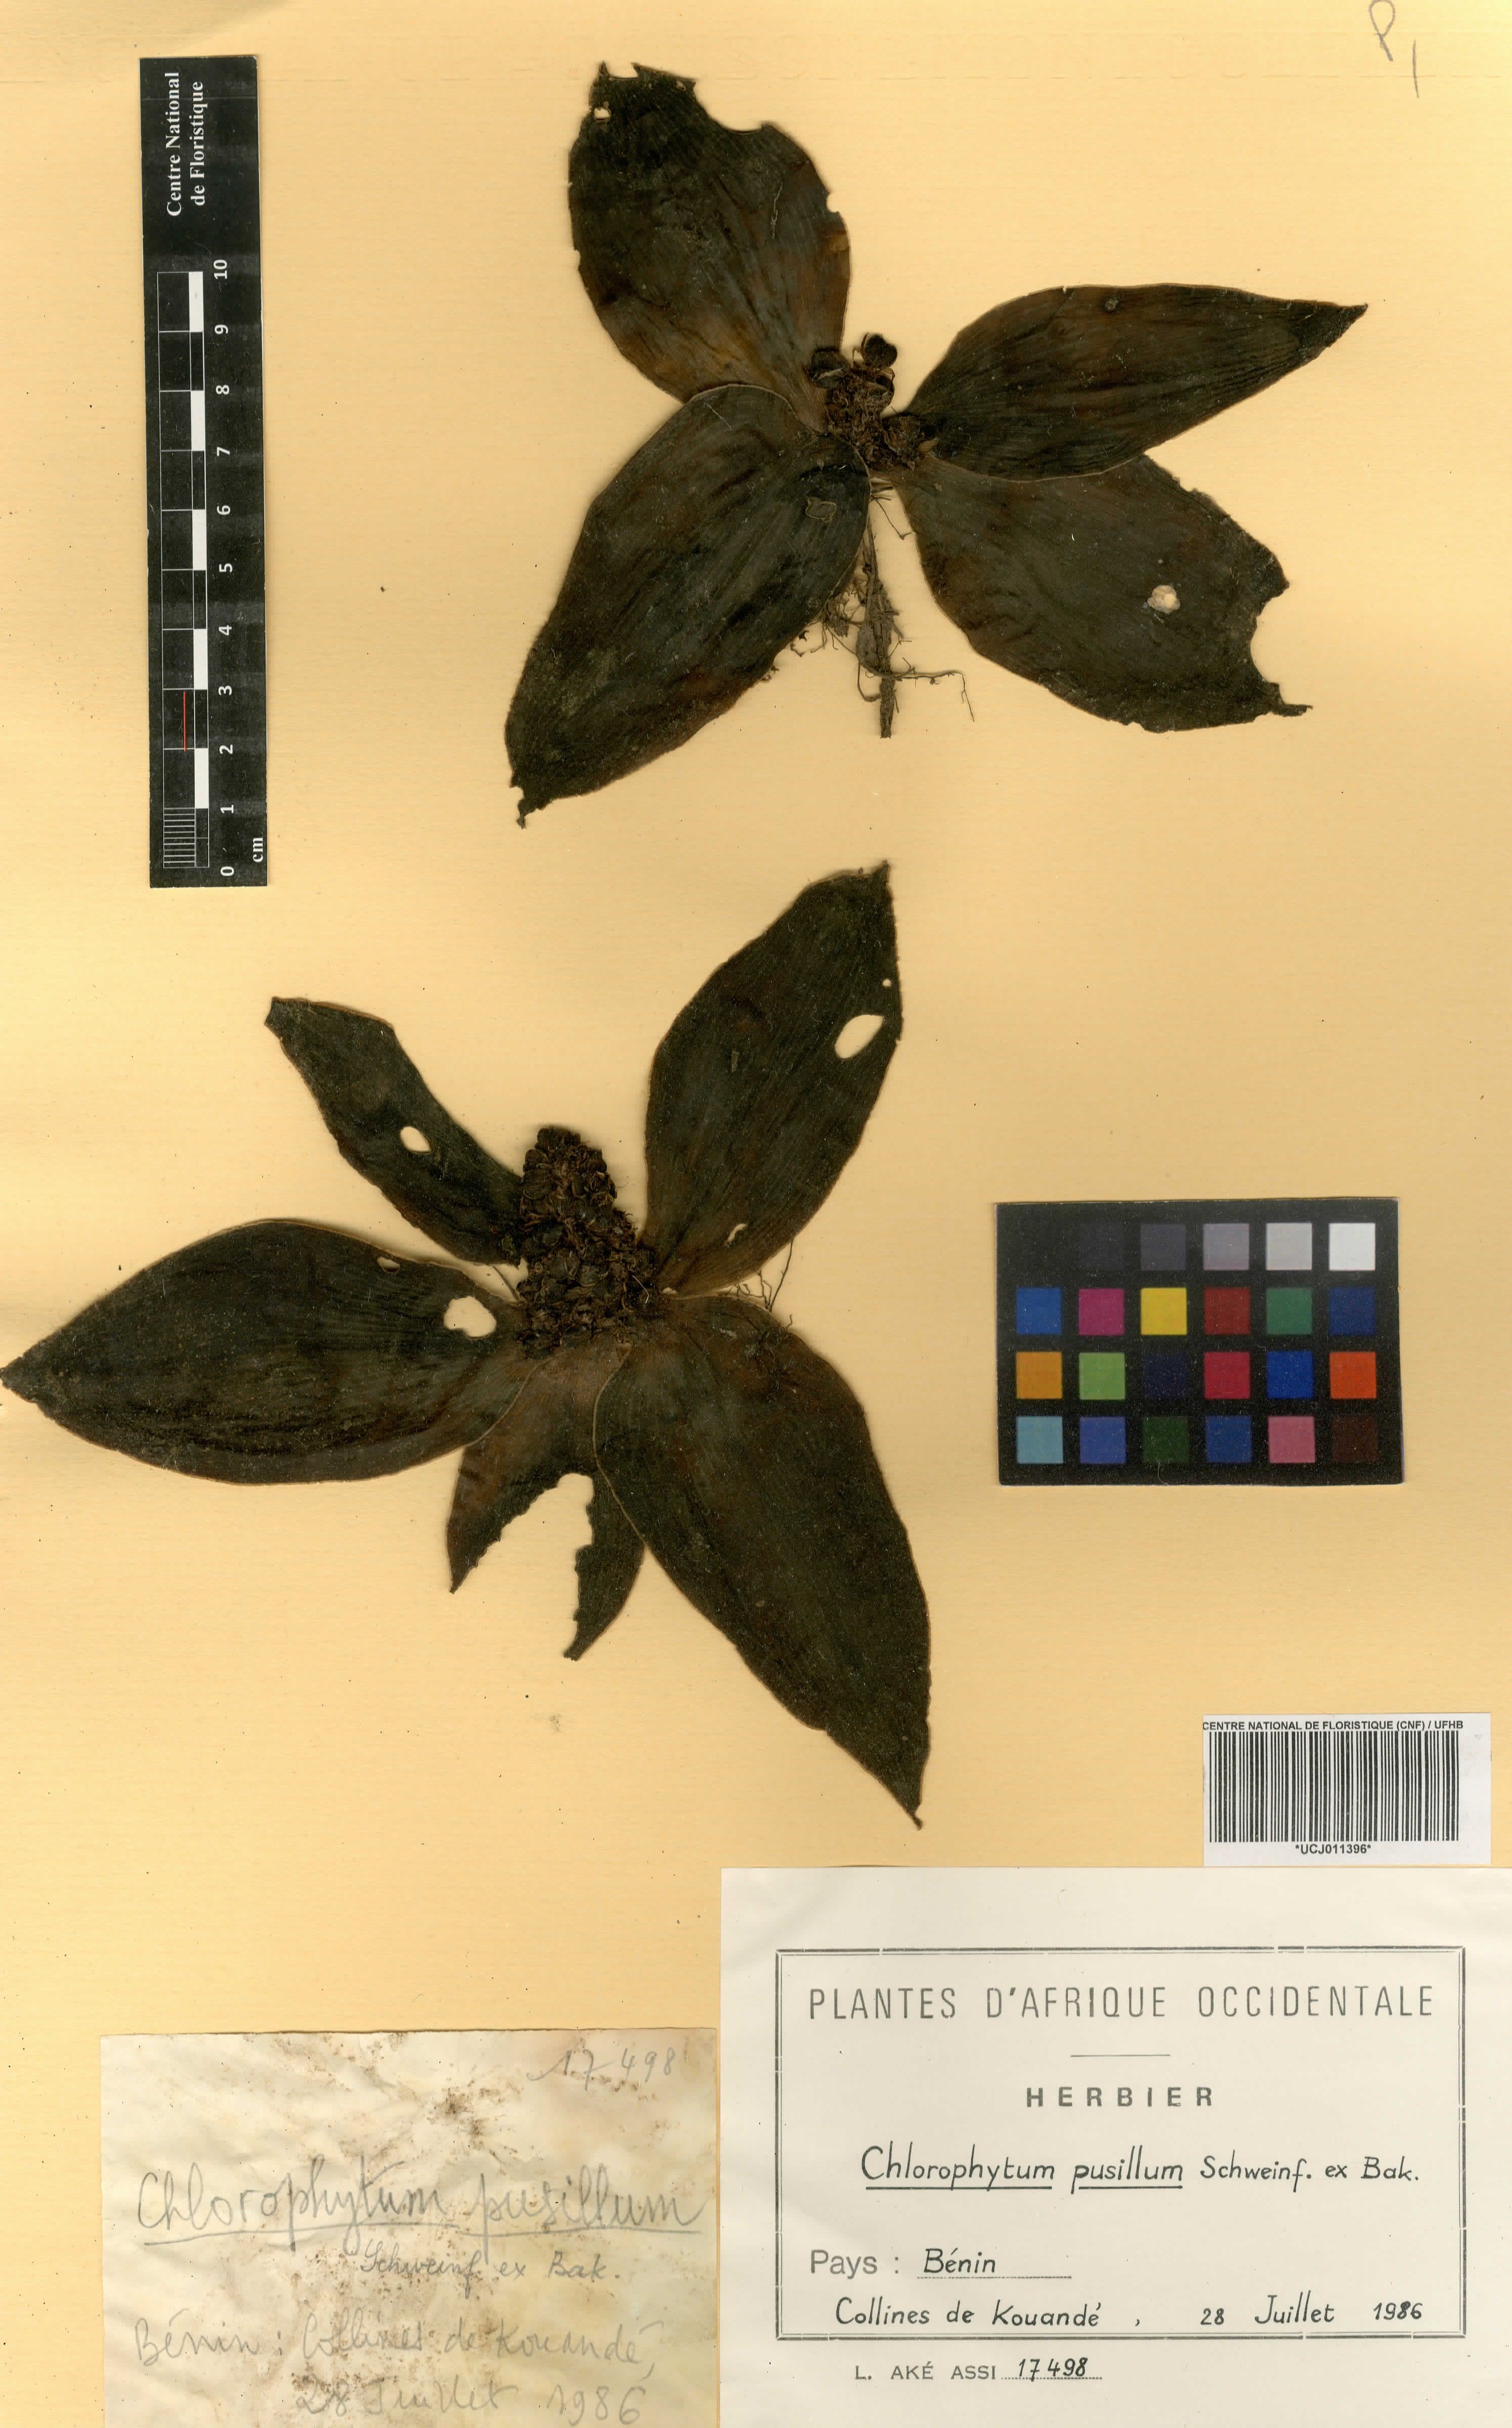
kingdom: Plantae
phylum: Tracheophyta
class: Liliopsida
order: Asparagales
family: Asparagaceae
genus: Chlorophytum
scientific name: Chlorophytum pusillum
